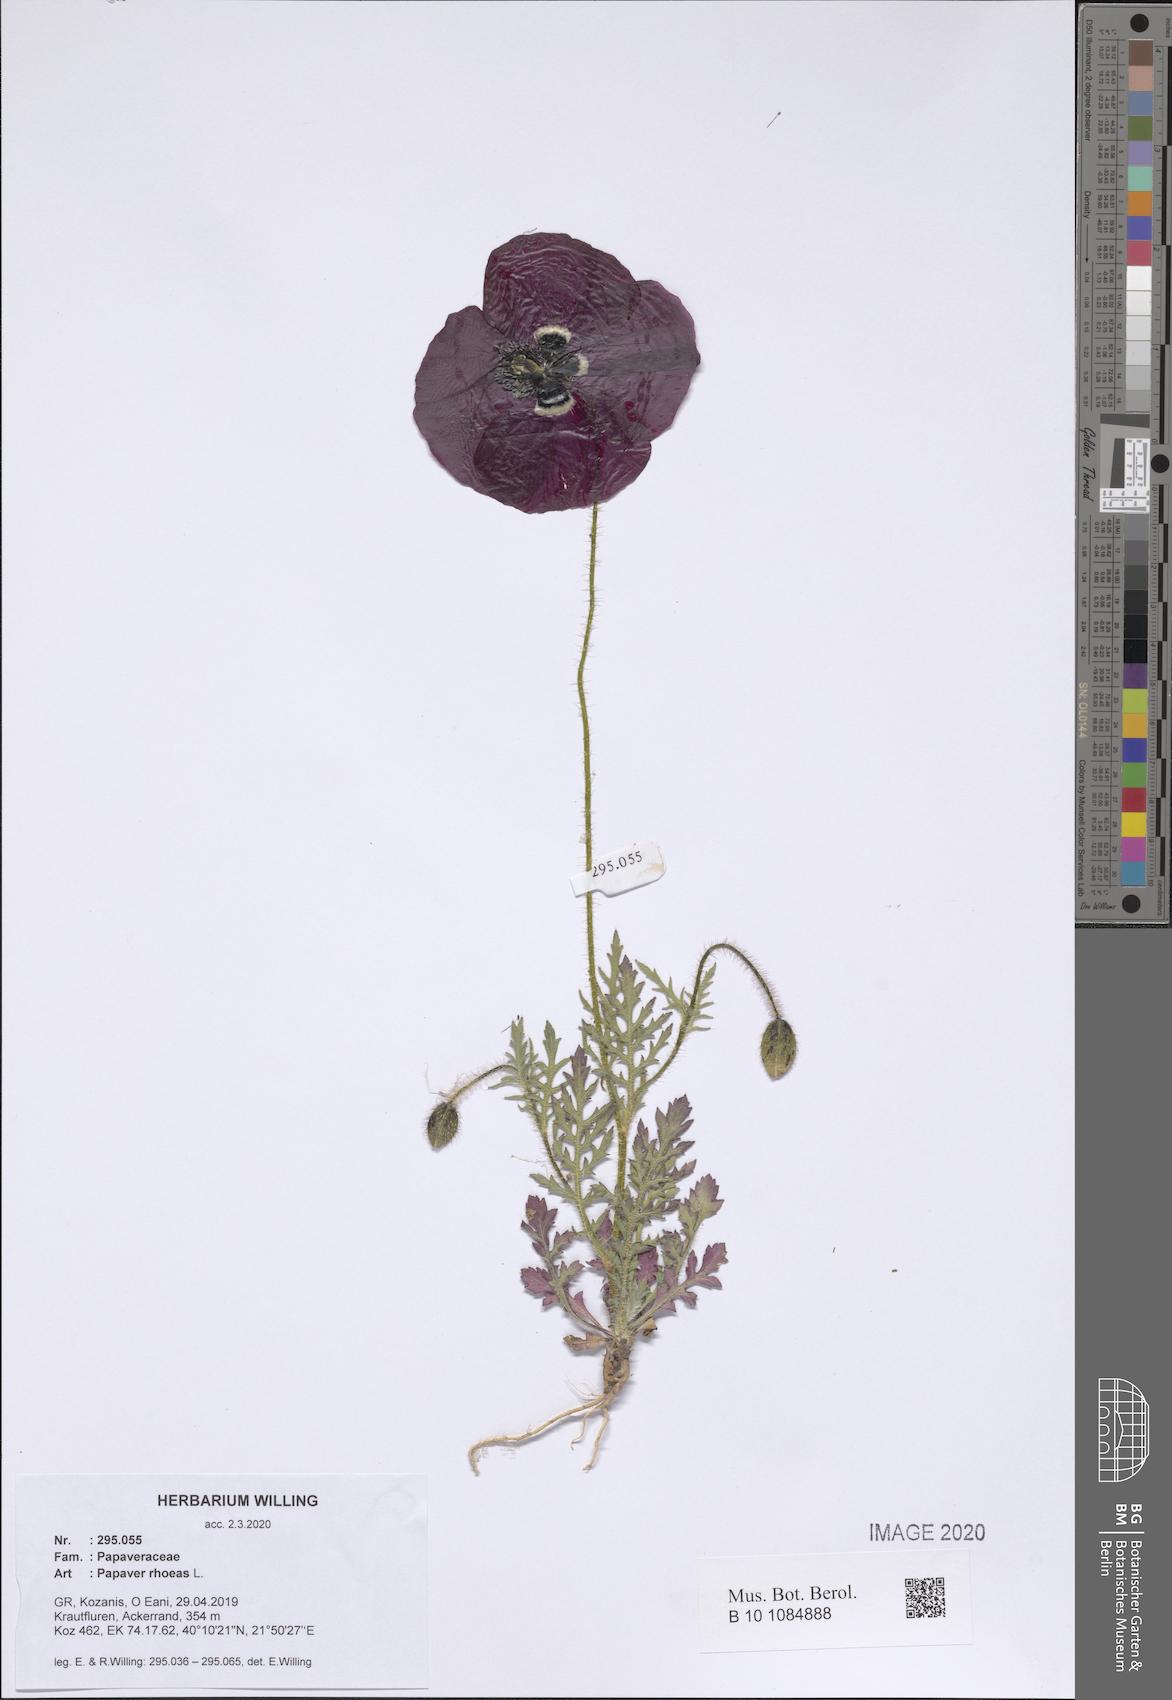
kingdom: Plantae
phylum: Tracheophyta
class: Magnoliopsida
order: Ranunculales
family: Papaveraceae
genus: Papaver
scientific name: Papaver rhoeas
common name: Corn poppy
